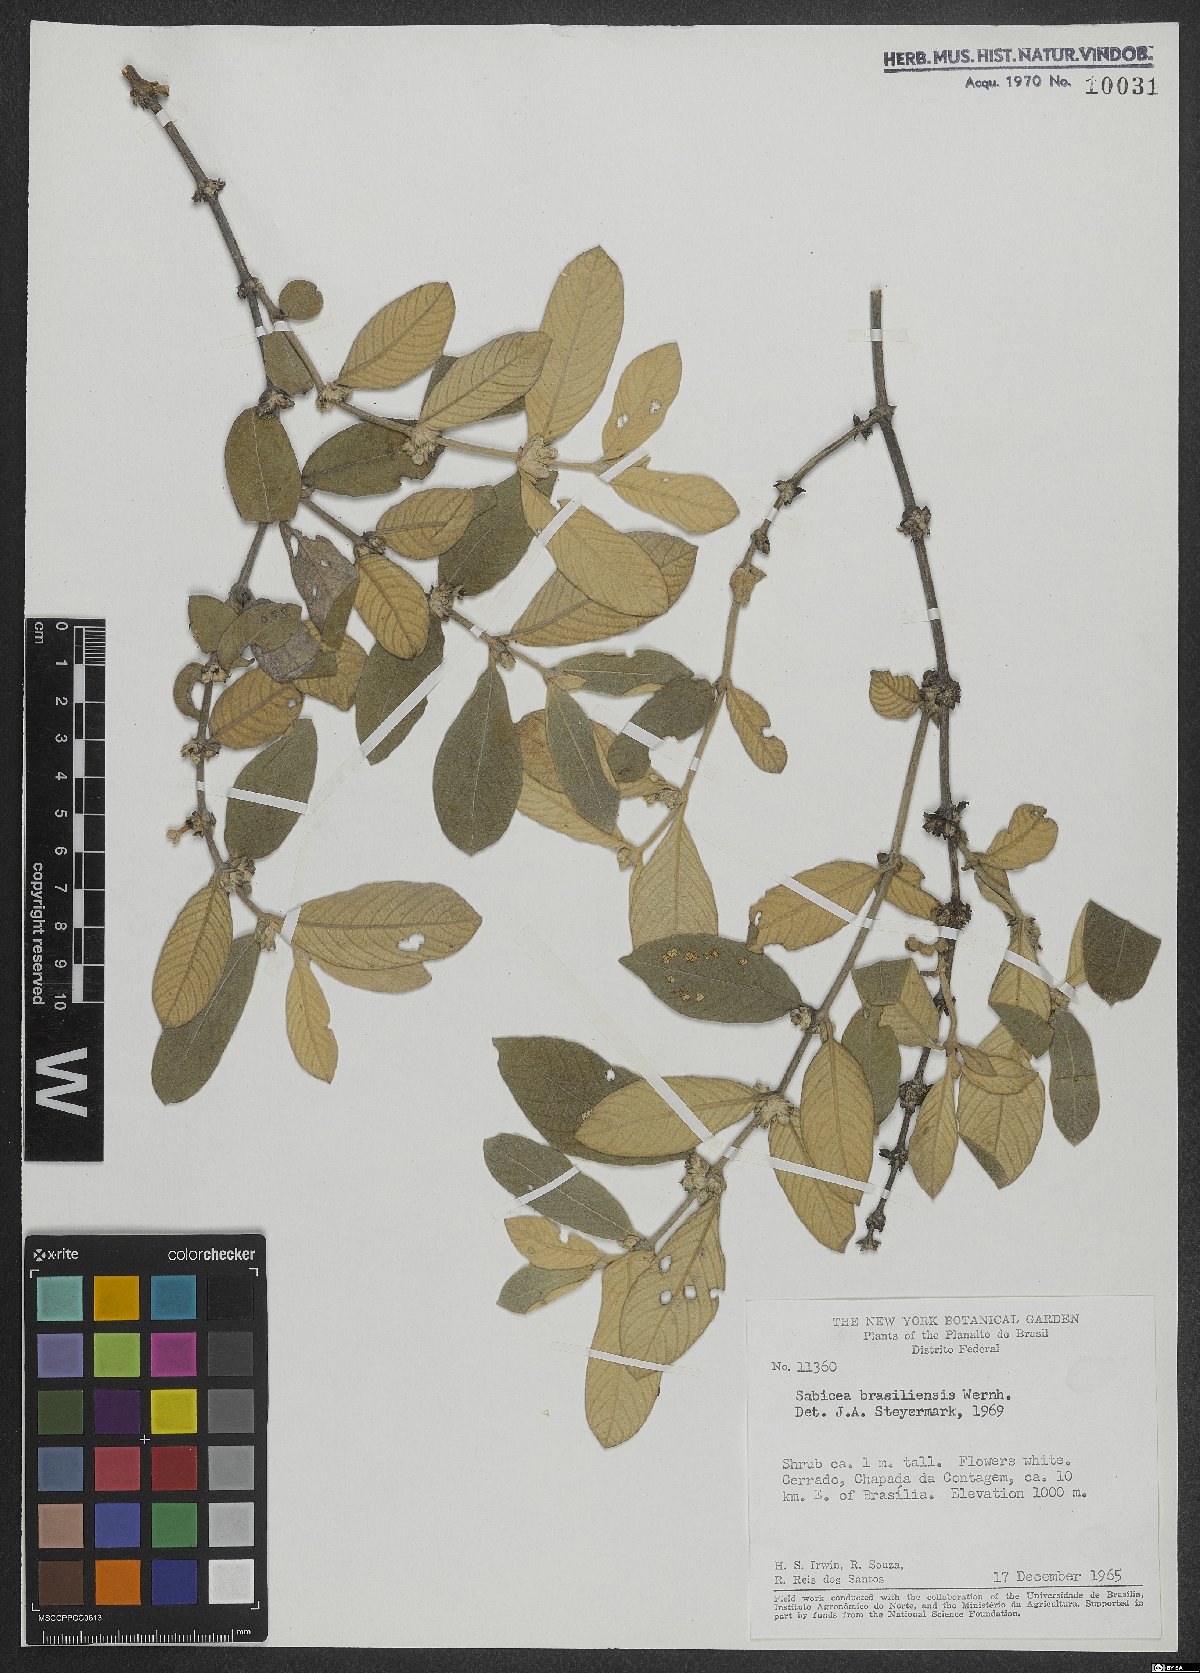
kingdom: Plantae
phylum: Tracheophyta
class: Magnoliopsida
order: Gentianales
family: Rubiaceae
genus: Sabicea
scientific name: Sabicea brasiliensis
